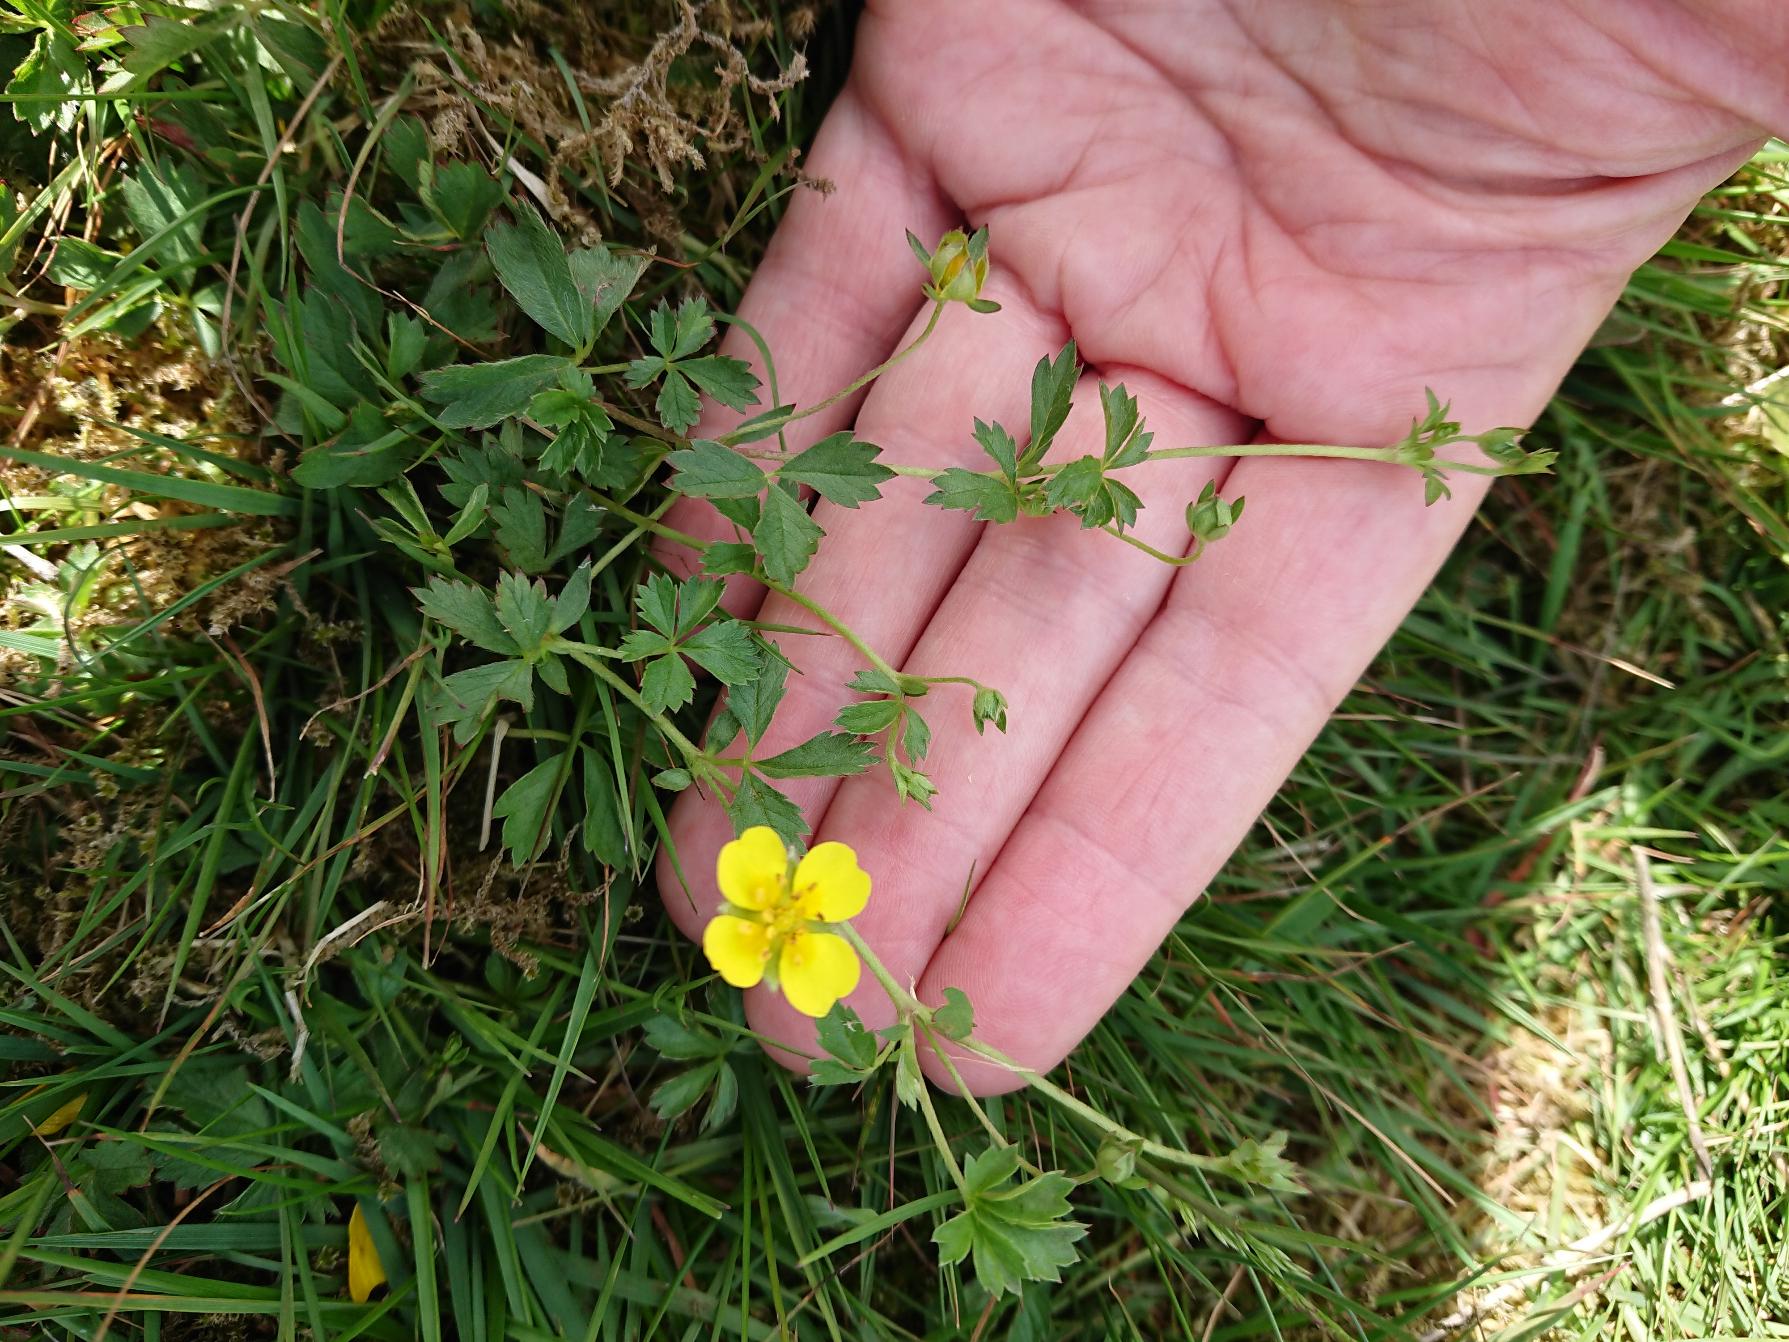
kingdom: Plantae
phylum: Tracheophyta
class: Magnoliopsida
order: Rosales
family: Rosaceae
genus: Potentilla
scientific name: Potentilla anglica
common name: Liggende potentil
